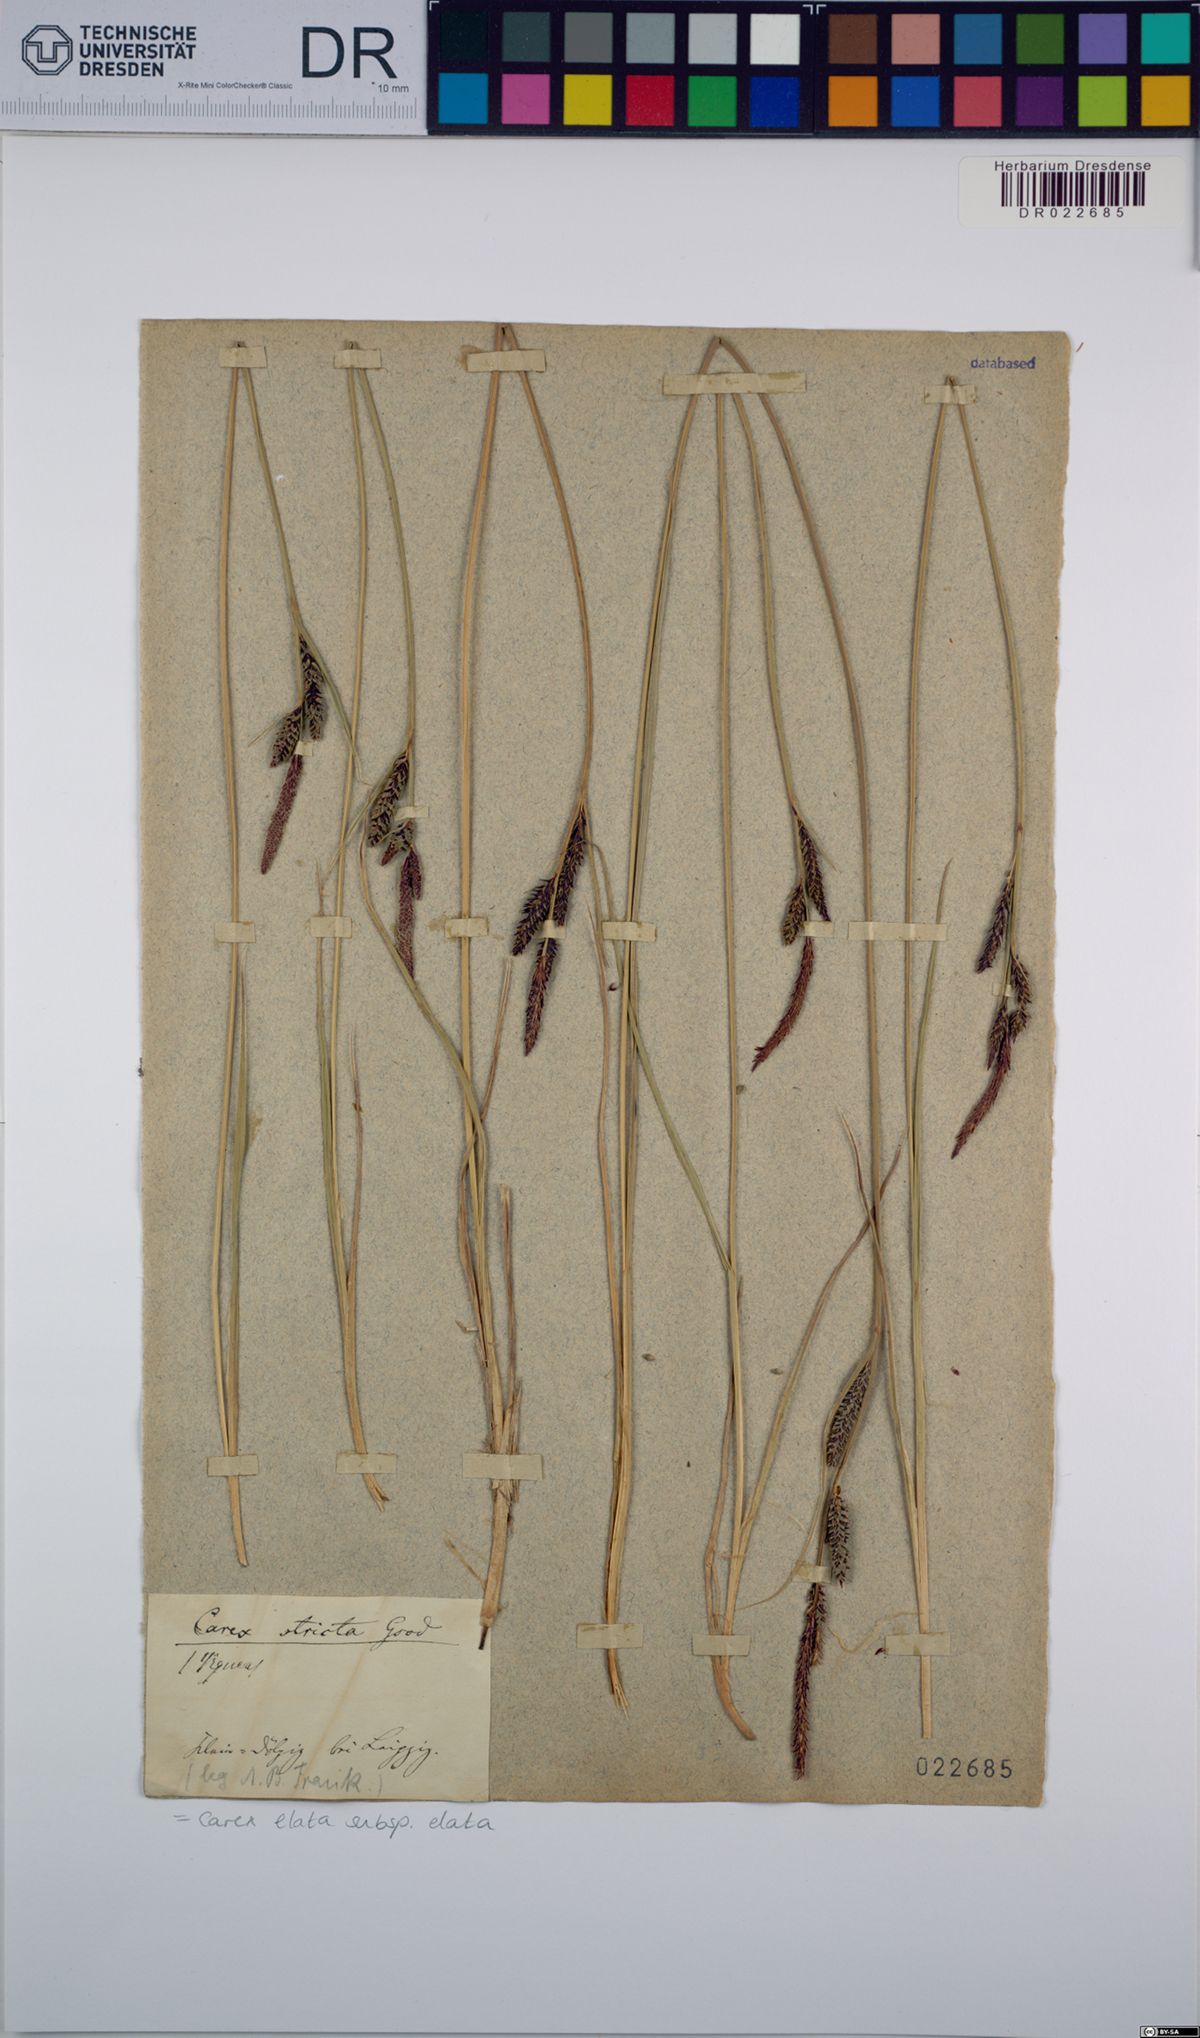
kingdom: Plantae
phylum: Tracheophyta
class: Liliopsida
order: Poales
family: Cyperaceae
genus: Carex
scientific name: Carex elata
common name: Tufted sedge
